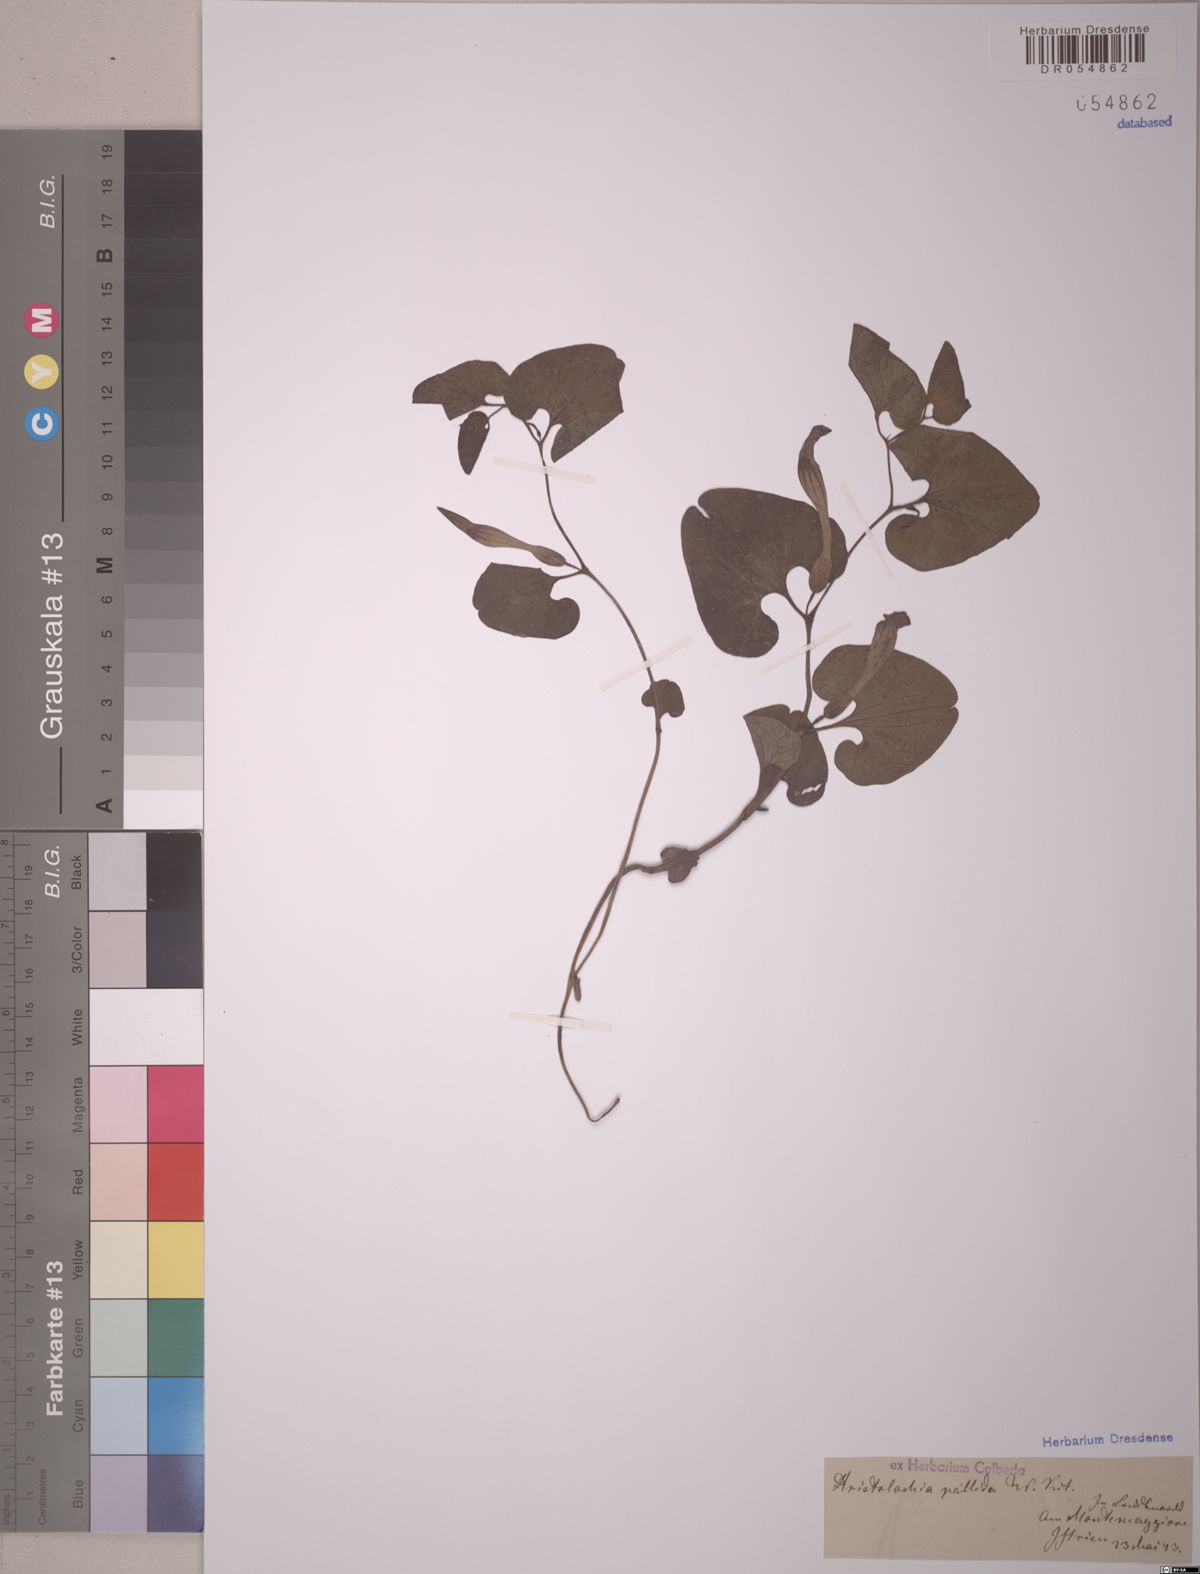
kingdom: Plantae
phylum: Tracheophyta
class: Magnoliopsida
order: Piperales
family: Aristolochiaceae
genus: Aristolochia
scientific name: Aristolochia pallida
